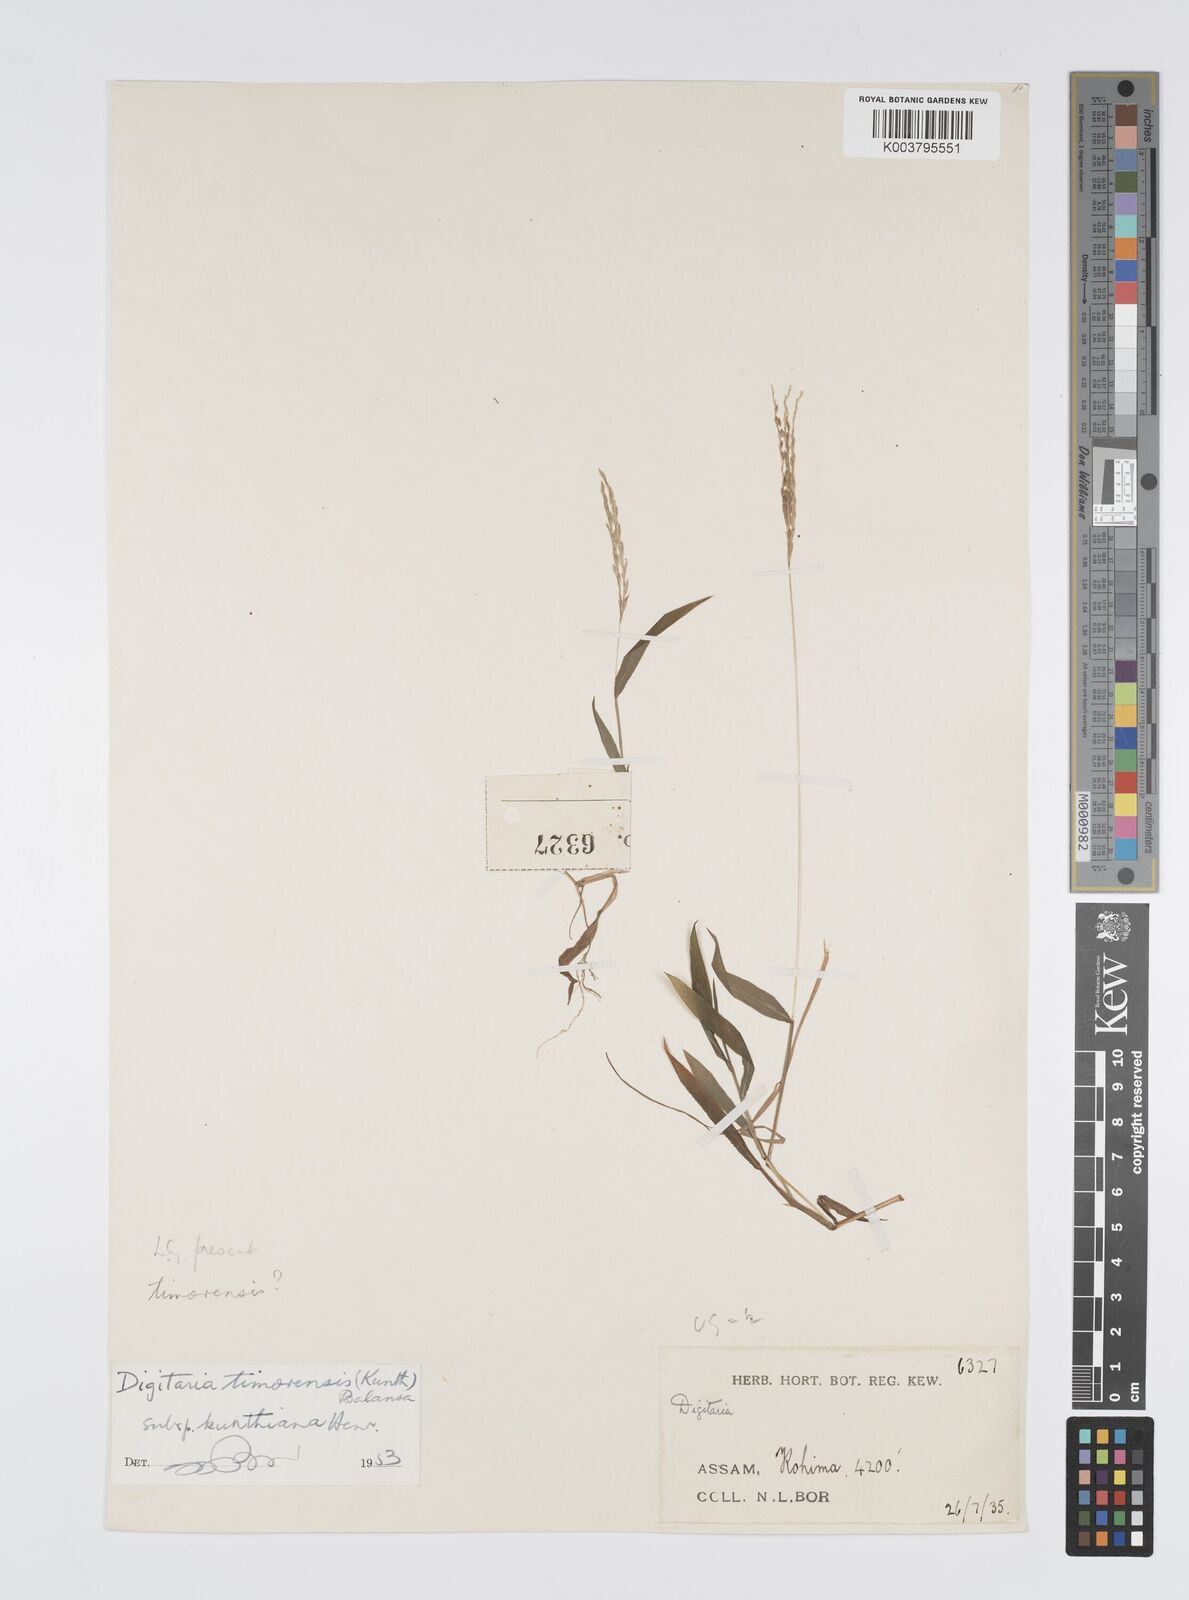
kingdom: Plantae
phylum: Tracheophyta
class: Liliopsida
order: Poales
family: Poaceae
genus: Digitaria
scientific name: Digitaria radicosa
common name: Trailing crabgrass
